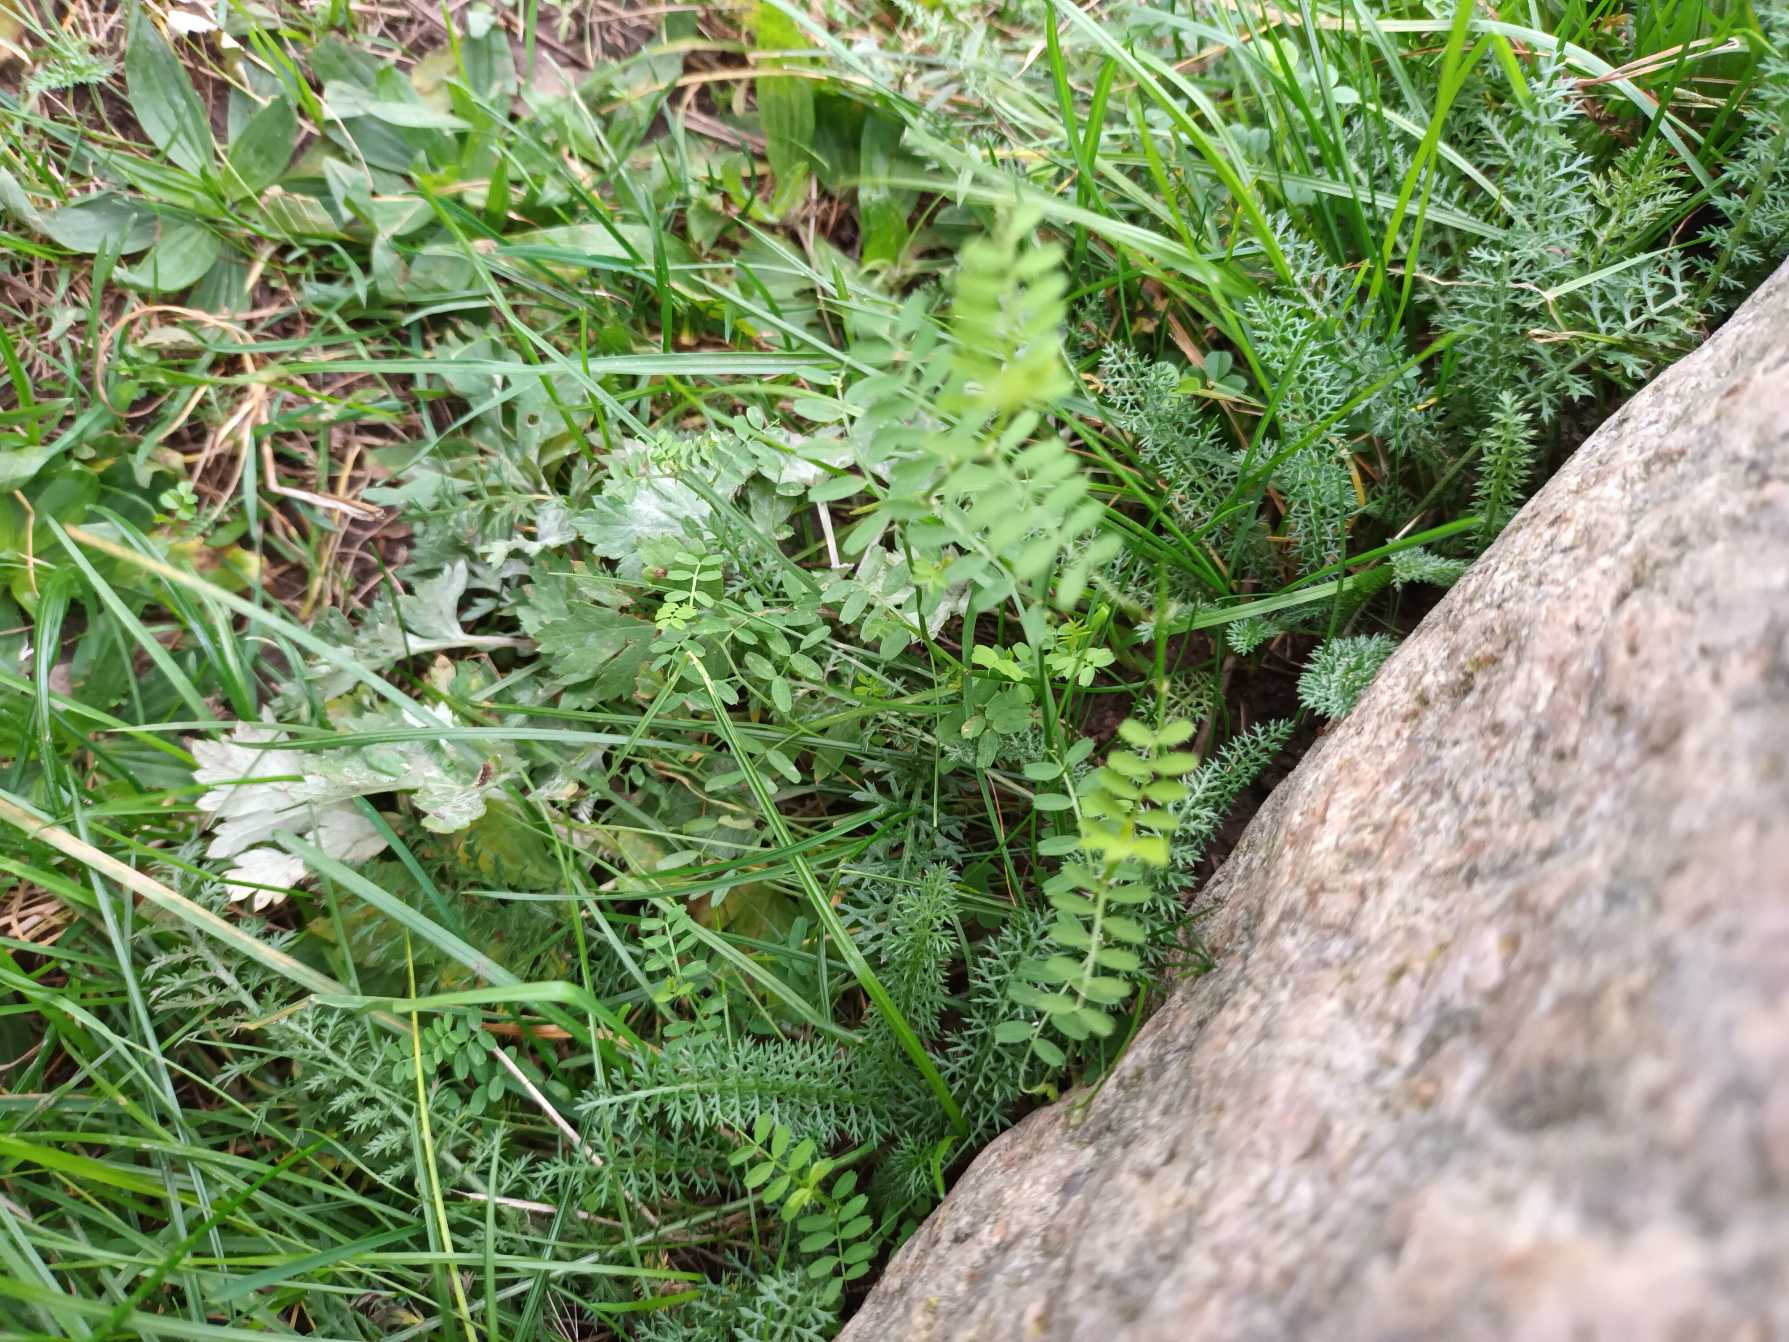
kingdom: Plantae
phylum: Tracheophyta
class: Magnoliopsida
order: Fabales
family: Fabaceae
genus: Vicia
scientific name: Vicia hirsuta
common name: Tofrøet vikke
